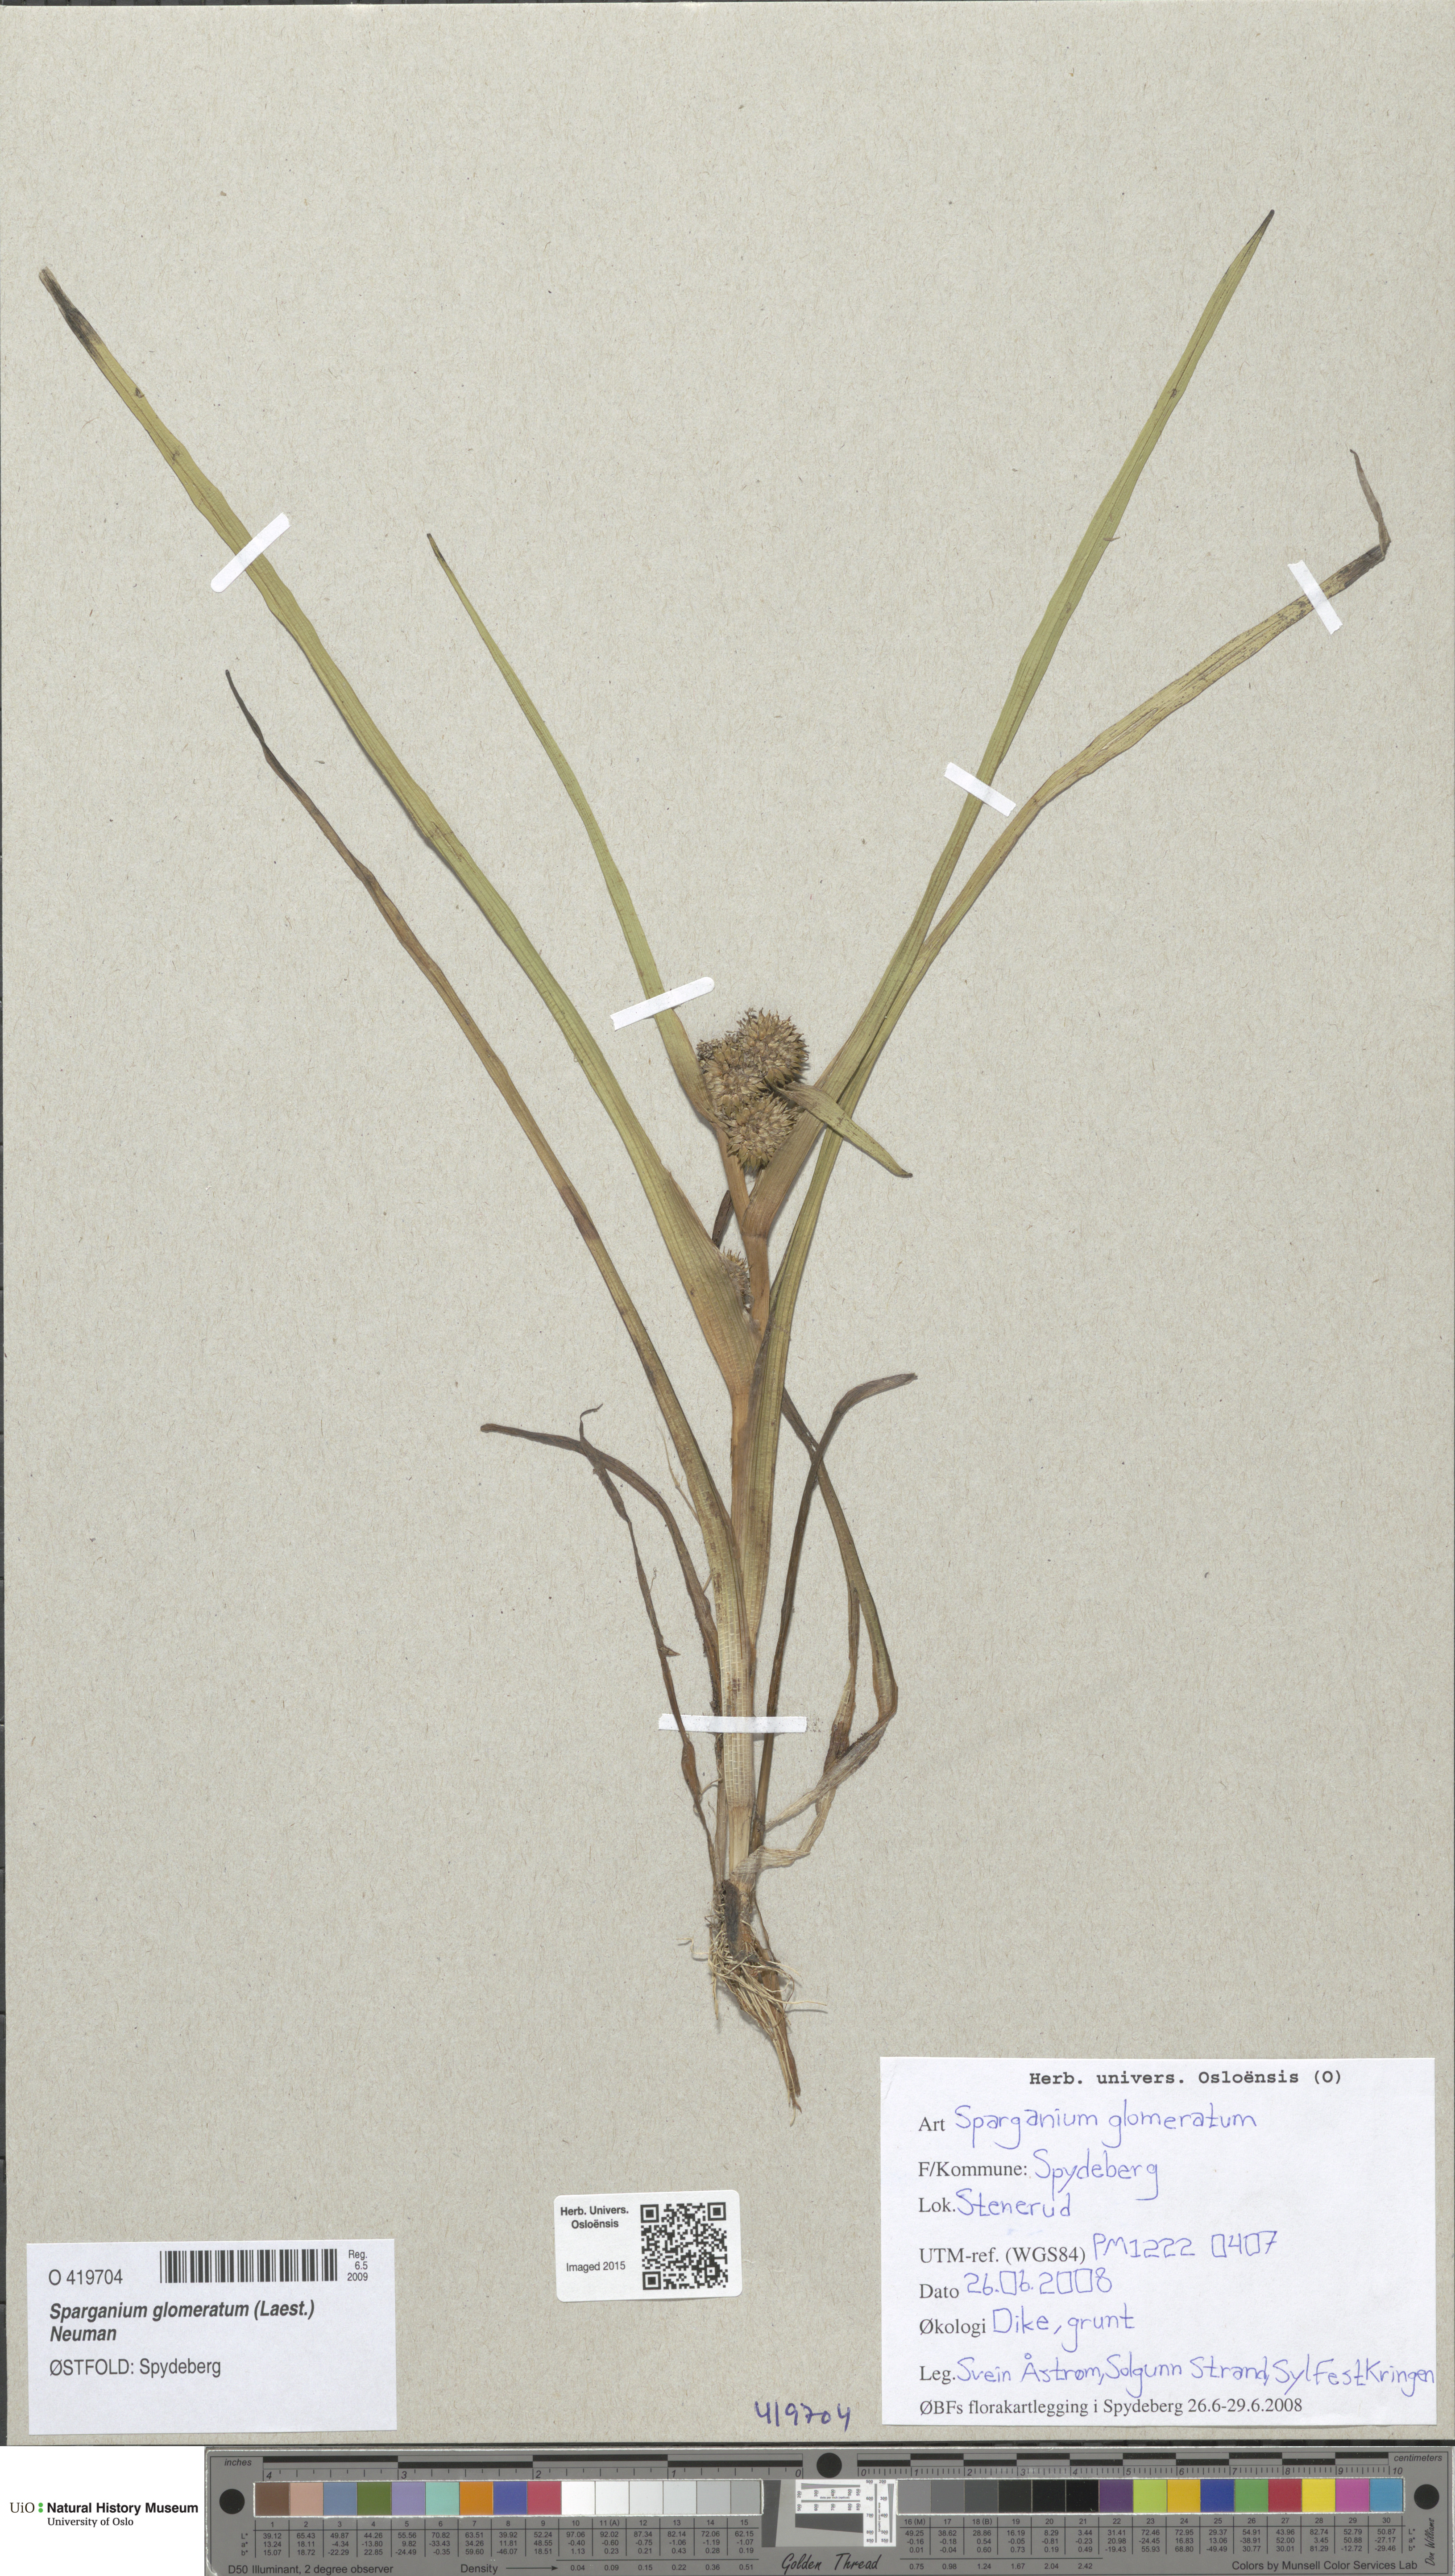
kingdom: Plantae
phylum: Tracheophyta
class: Liliopsida
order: Poales
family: Typhaceae
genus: Sparganium
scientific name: Sparganium glomeratum
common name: Clustered burreed
